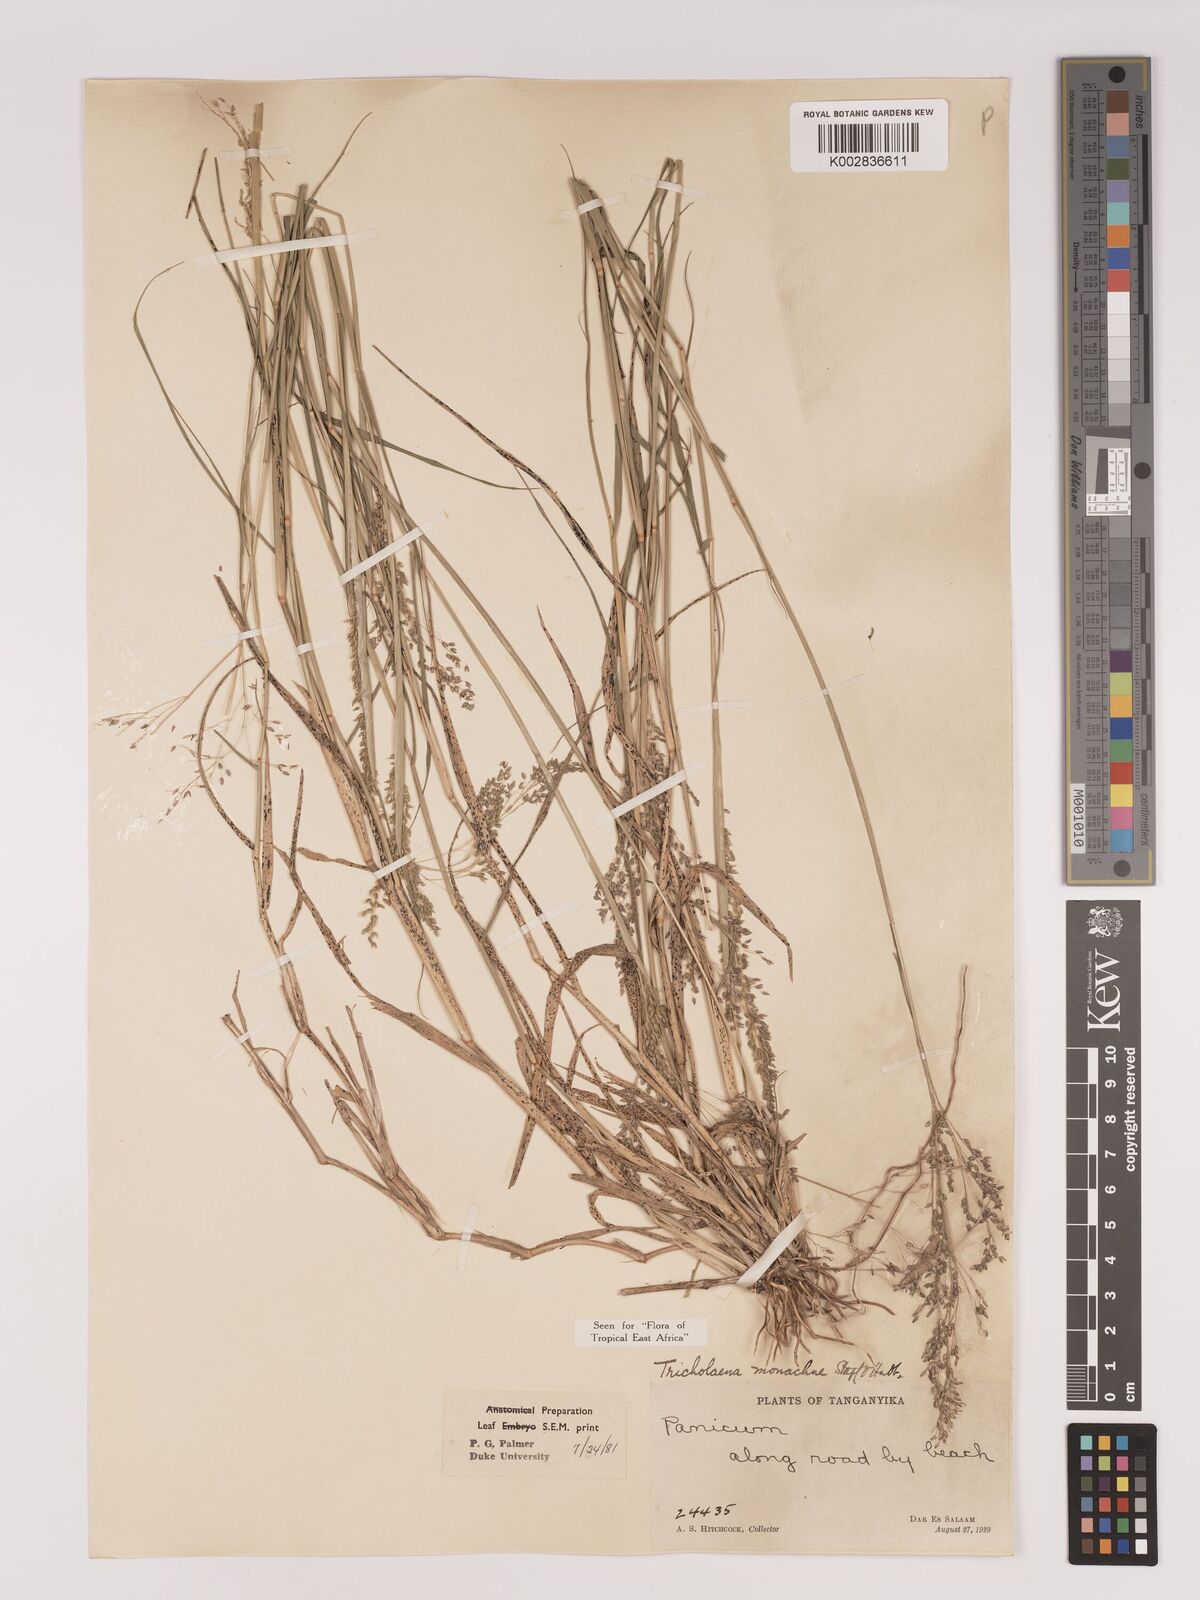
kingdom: Plantae
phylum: Tracheophyta
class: Liliopsida
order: Poales
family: Poaceae
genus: Tricholaena
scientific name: Tricholaena monachne
